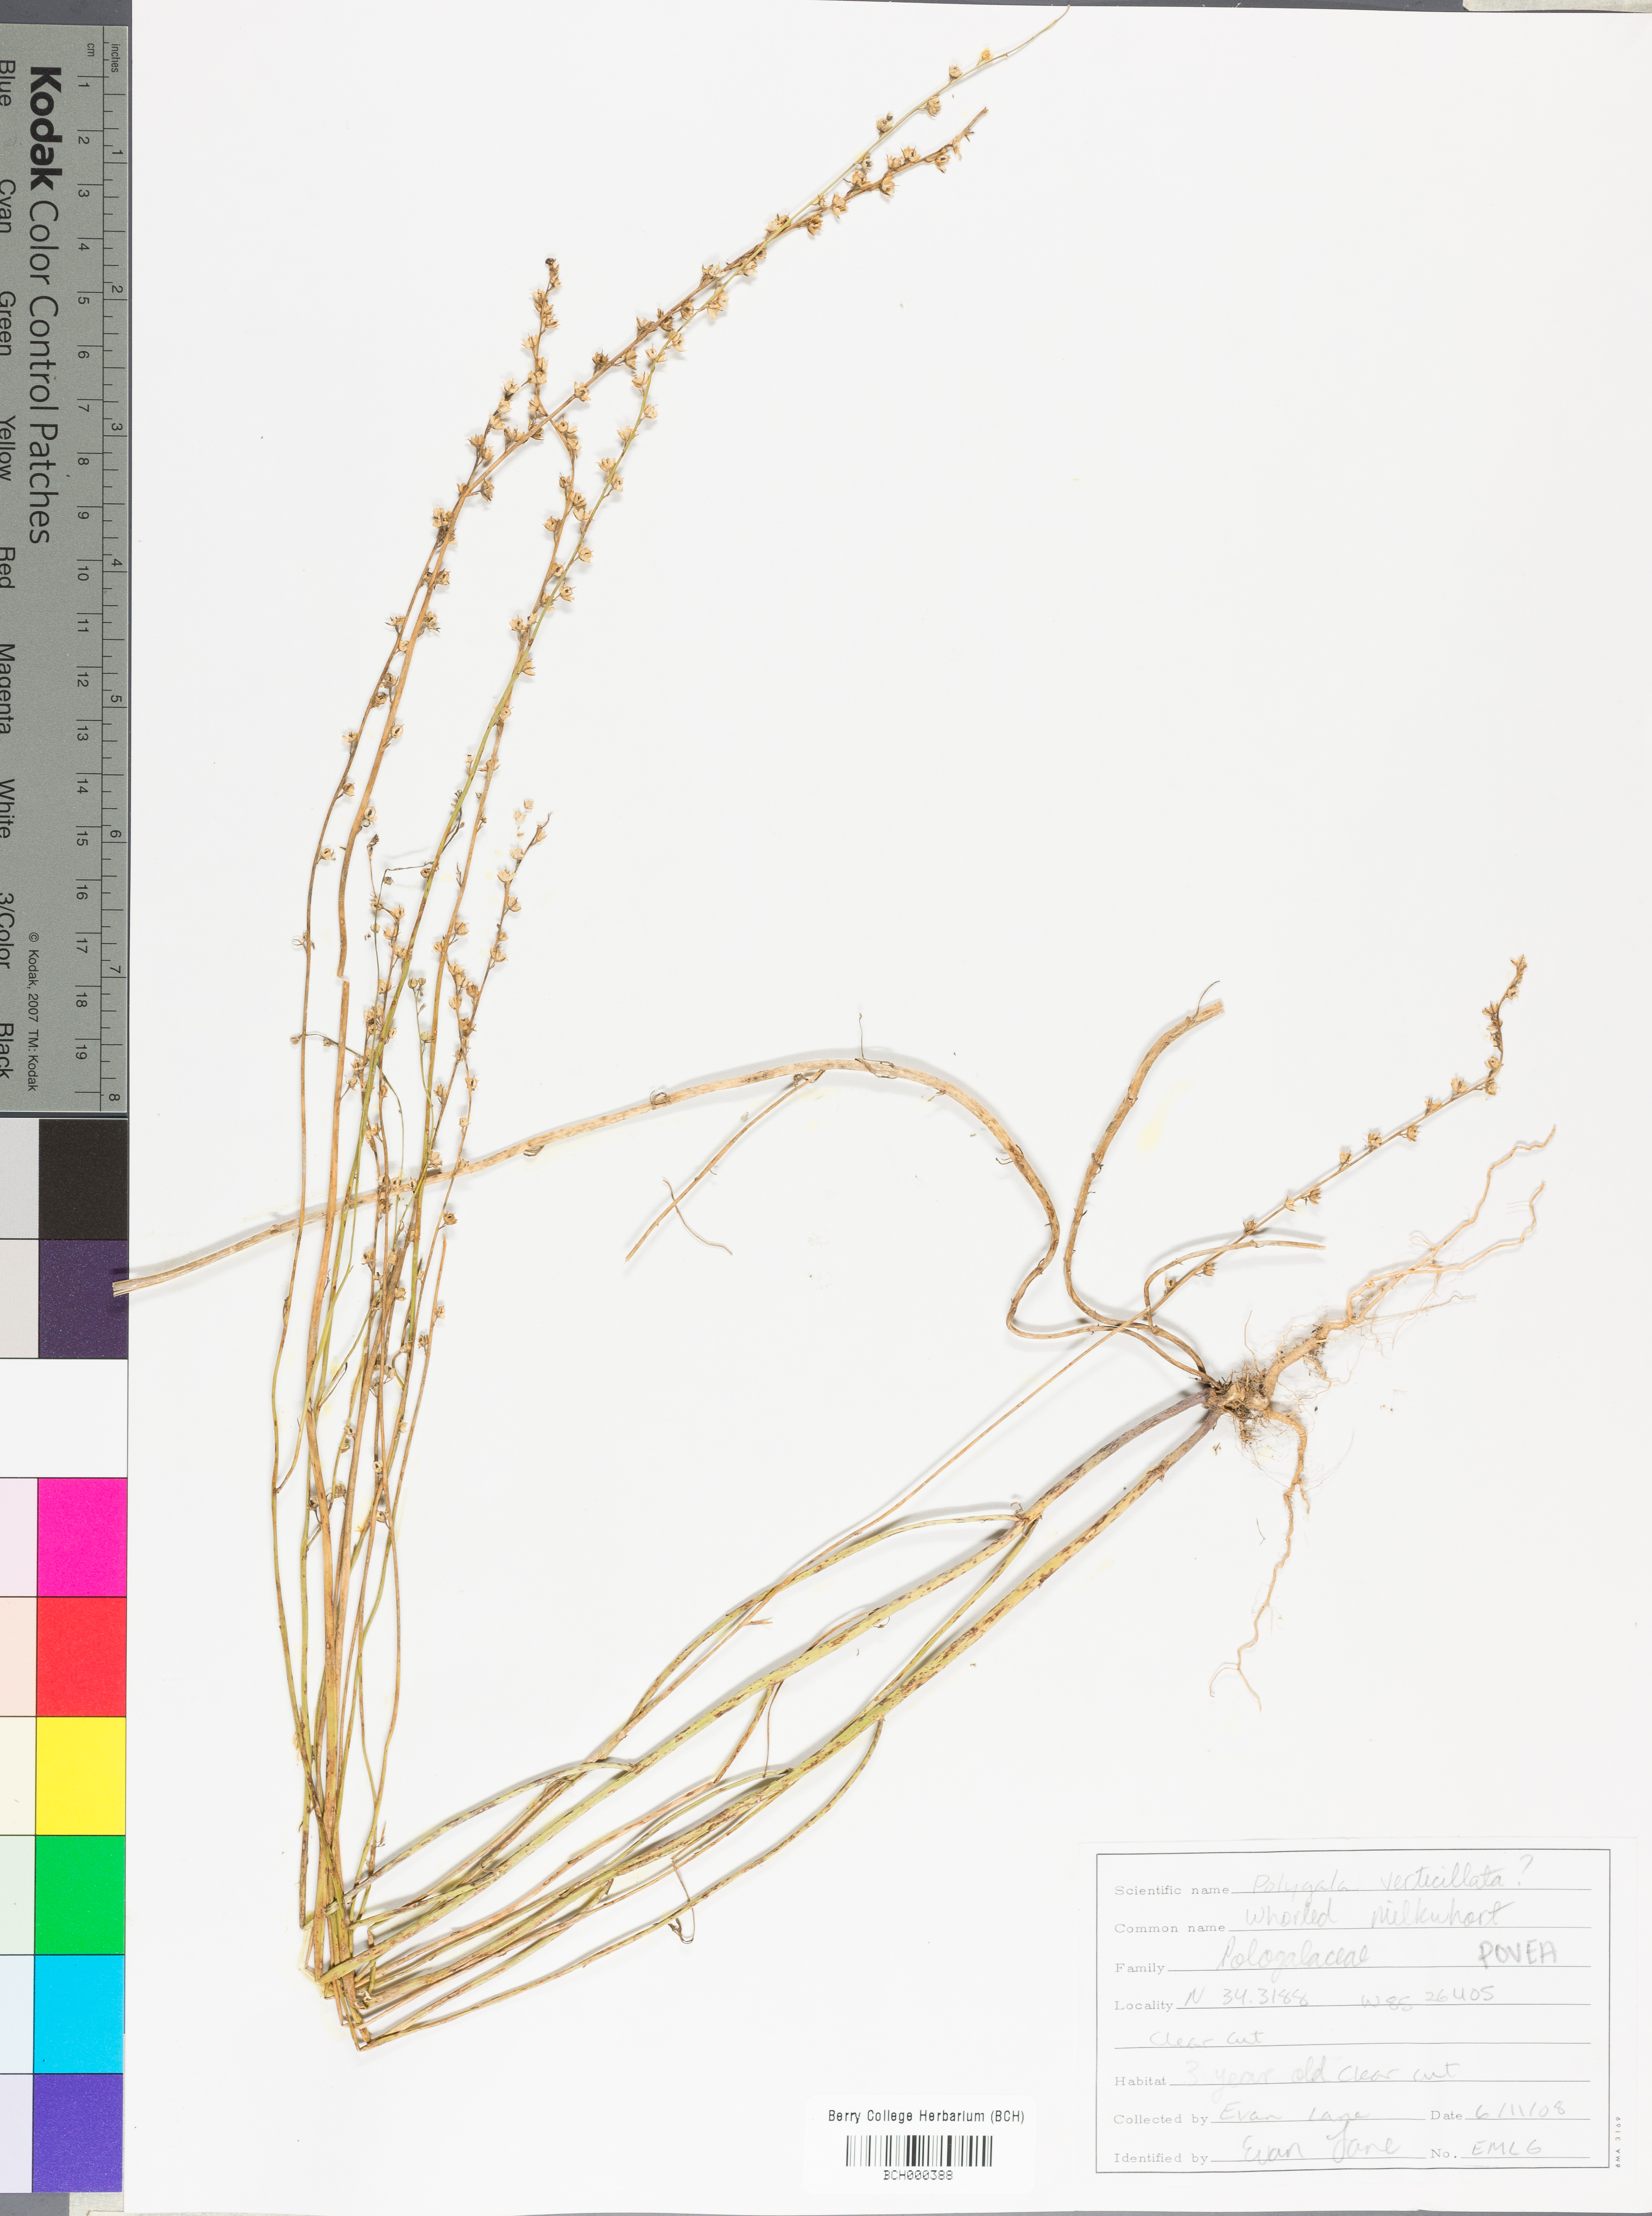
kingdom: Plantae
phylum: Tracheophyta
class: Magnoliopsida
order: Fabales
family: Polygalaceae
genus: Polygala
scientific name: Polygala ambigua
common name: Alternate milkwort
